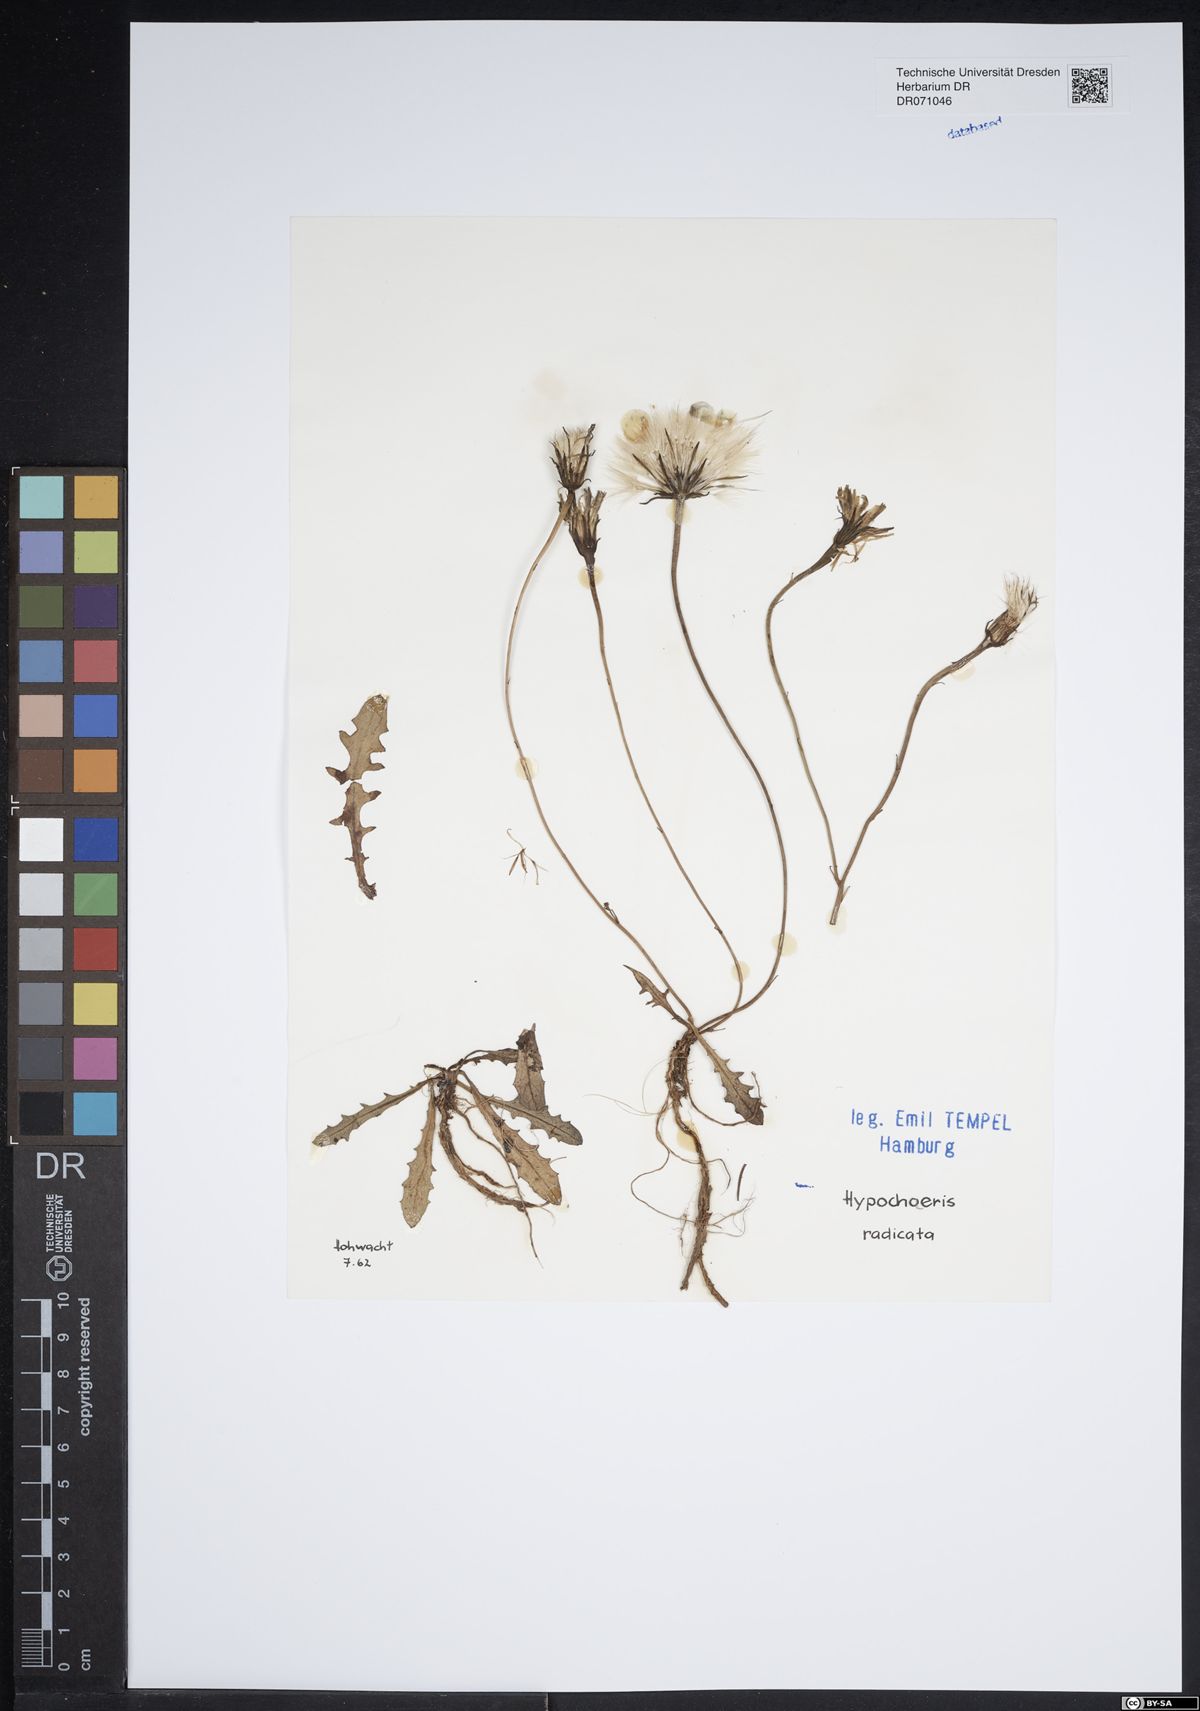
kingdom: Plantae
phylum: Tracheophyta
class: Magnoliopsida
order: Asterales
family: Asteraceae
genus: Hypochaeris
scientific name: Hypochaeris radicata
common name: Flatweed
